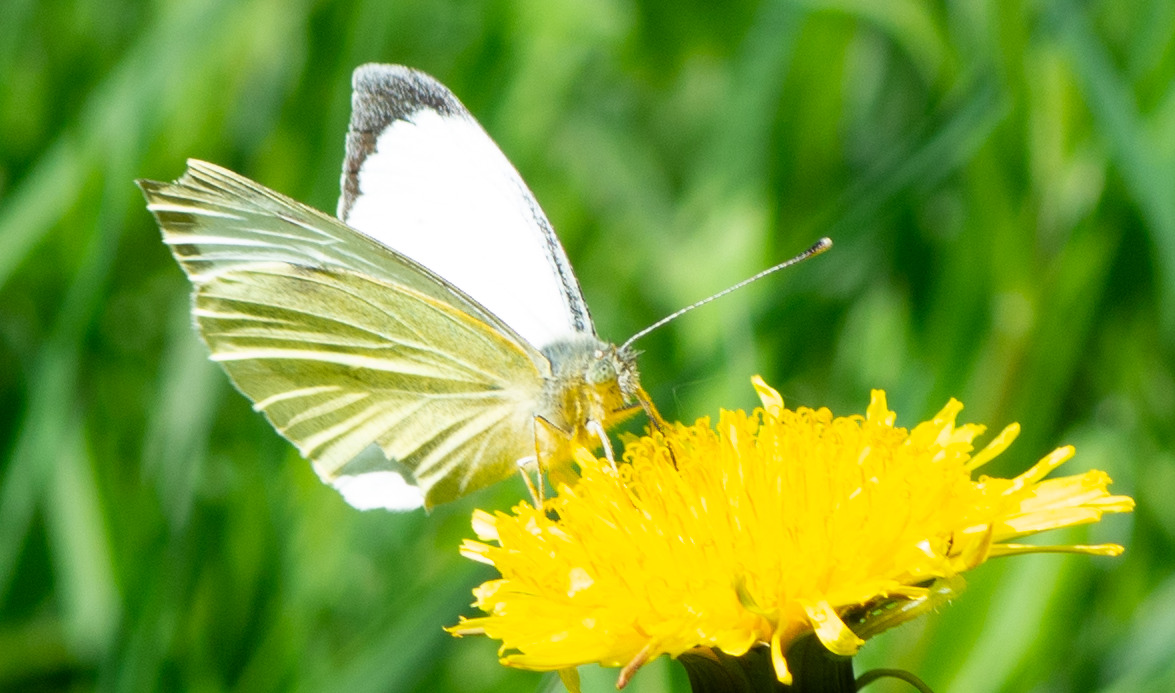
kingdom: Animalia
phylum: Arthropoda
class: Insecta
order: Lepidoptera
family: Pieridae
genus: Pieris
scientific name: Pieris brassicae
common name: Stor kålsommerfugl
